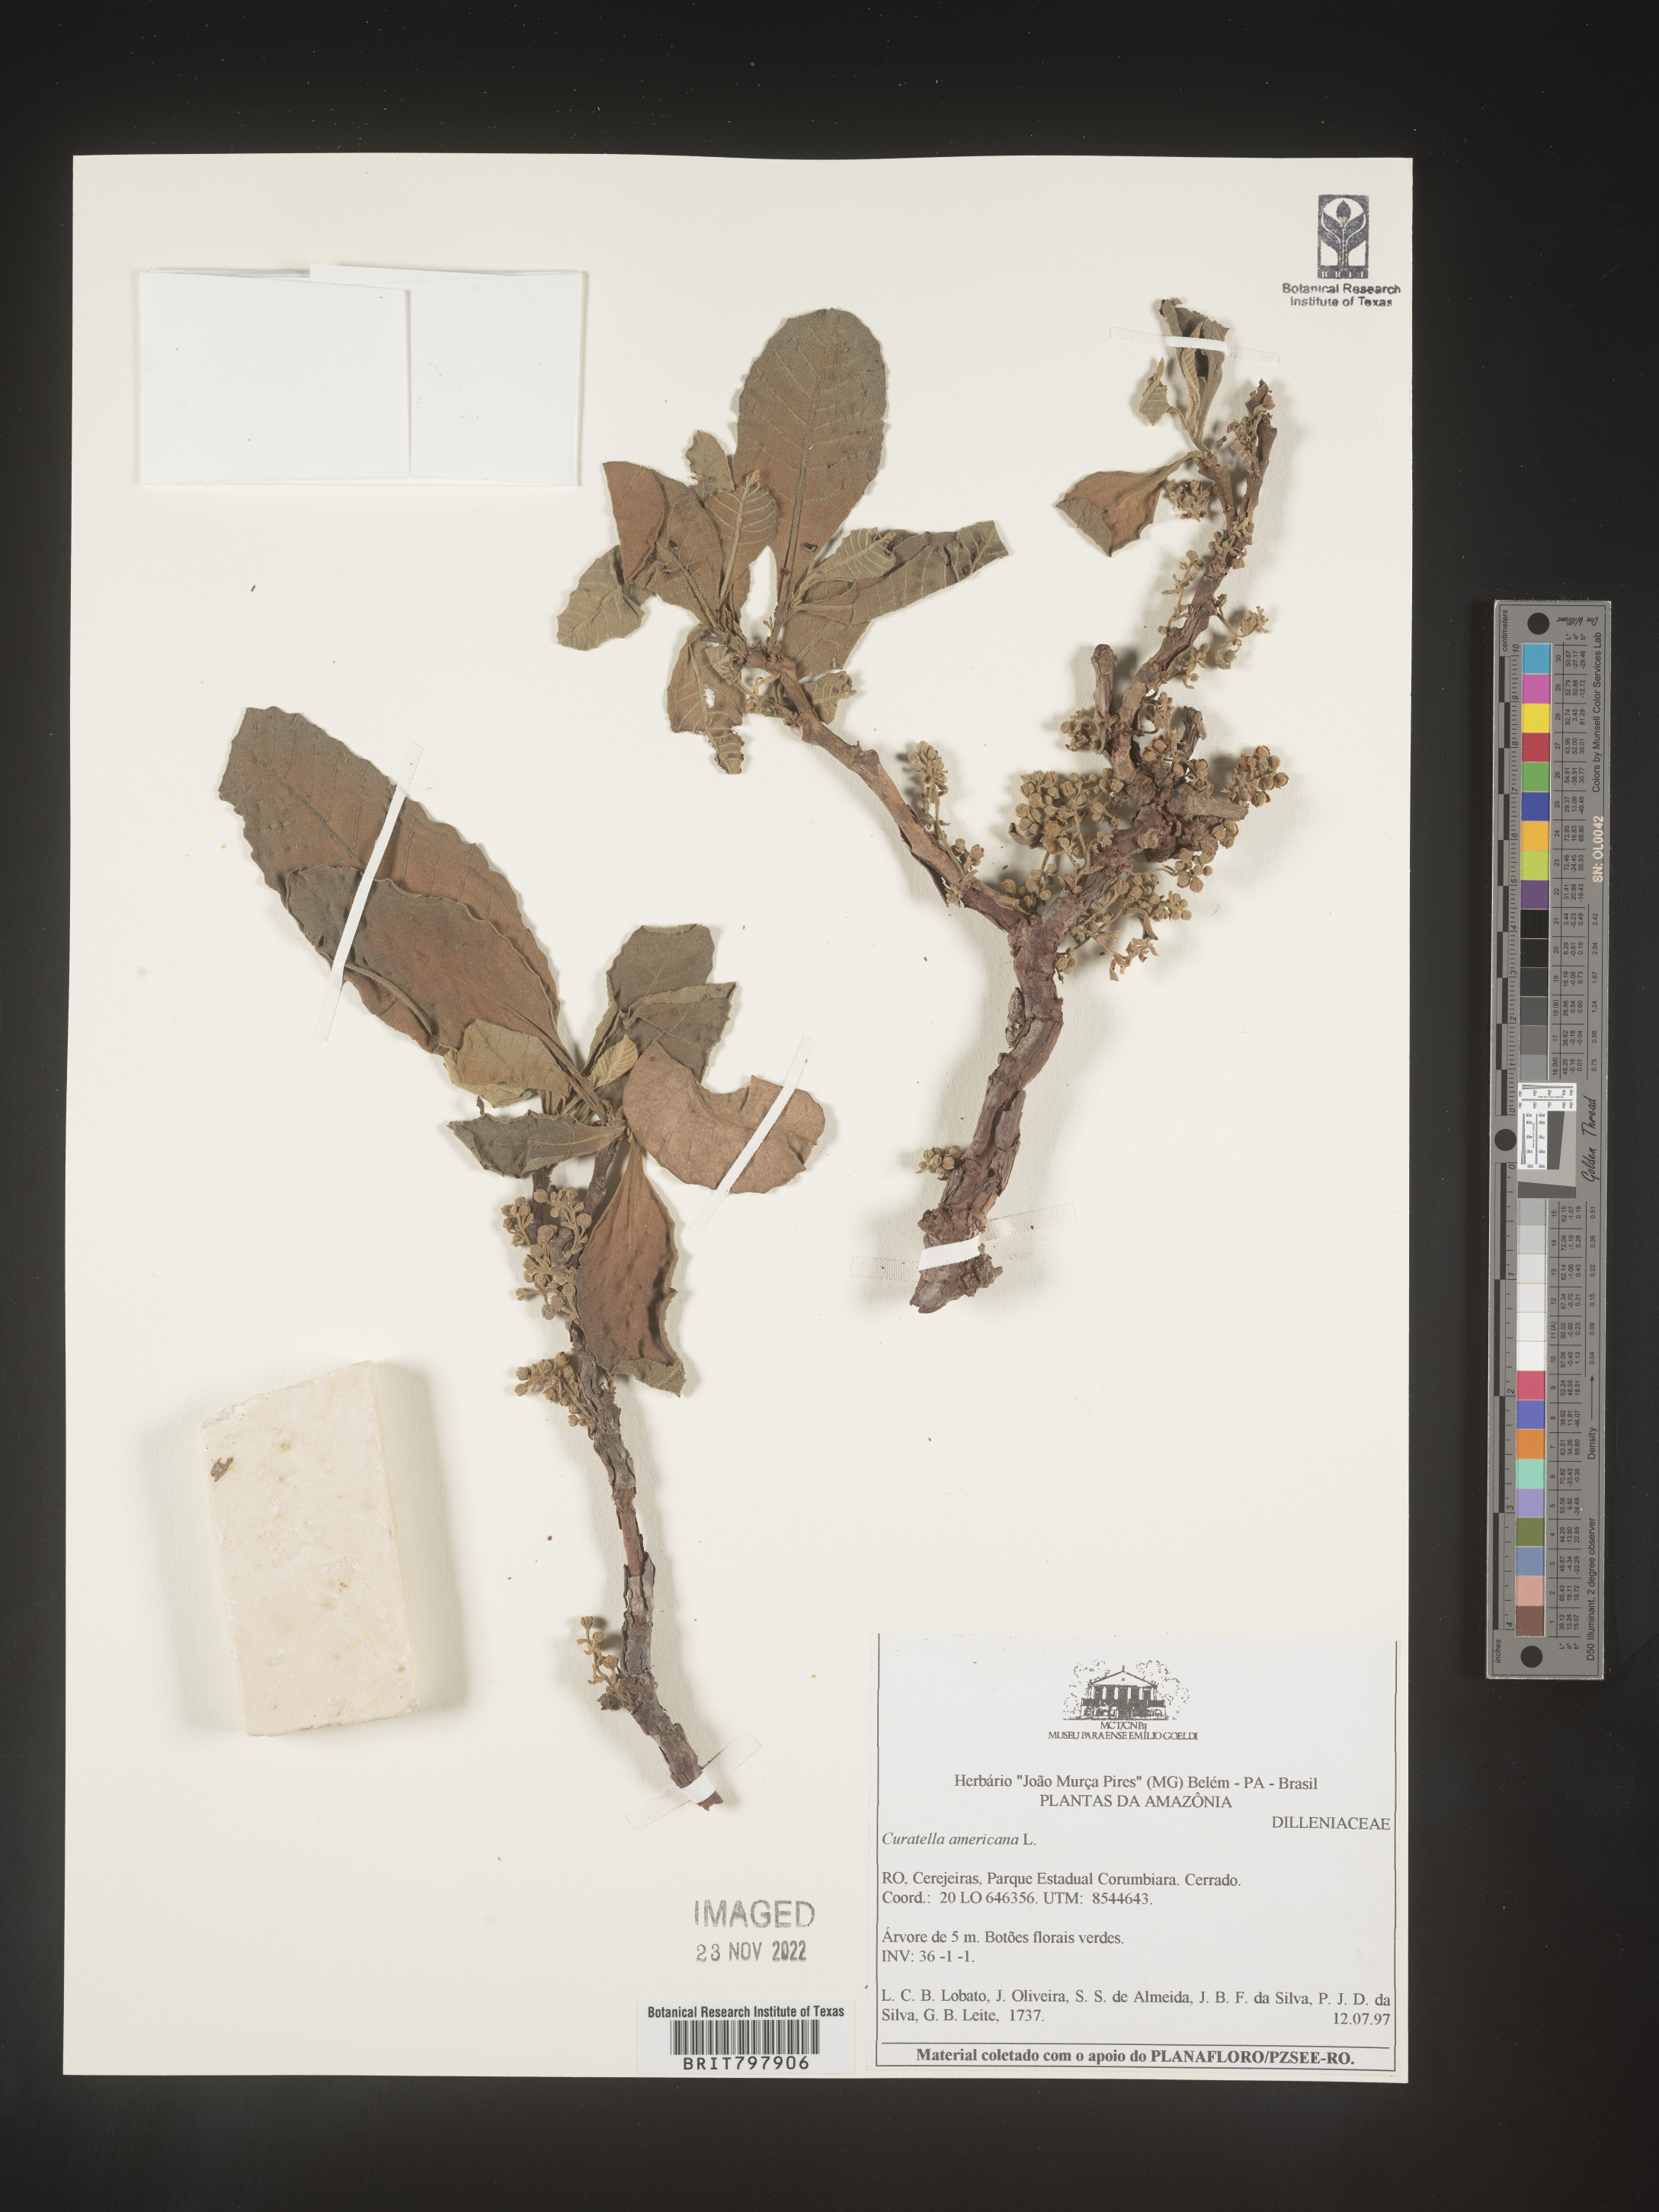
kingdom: Plantae
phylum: Tracheophyta
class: Magnoliopsida
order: Dilleniales
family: Dilleniaceae
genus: Curatella
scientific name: Curatella
